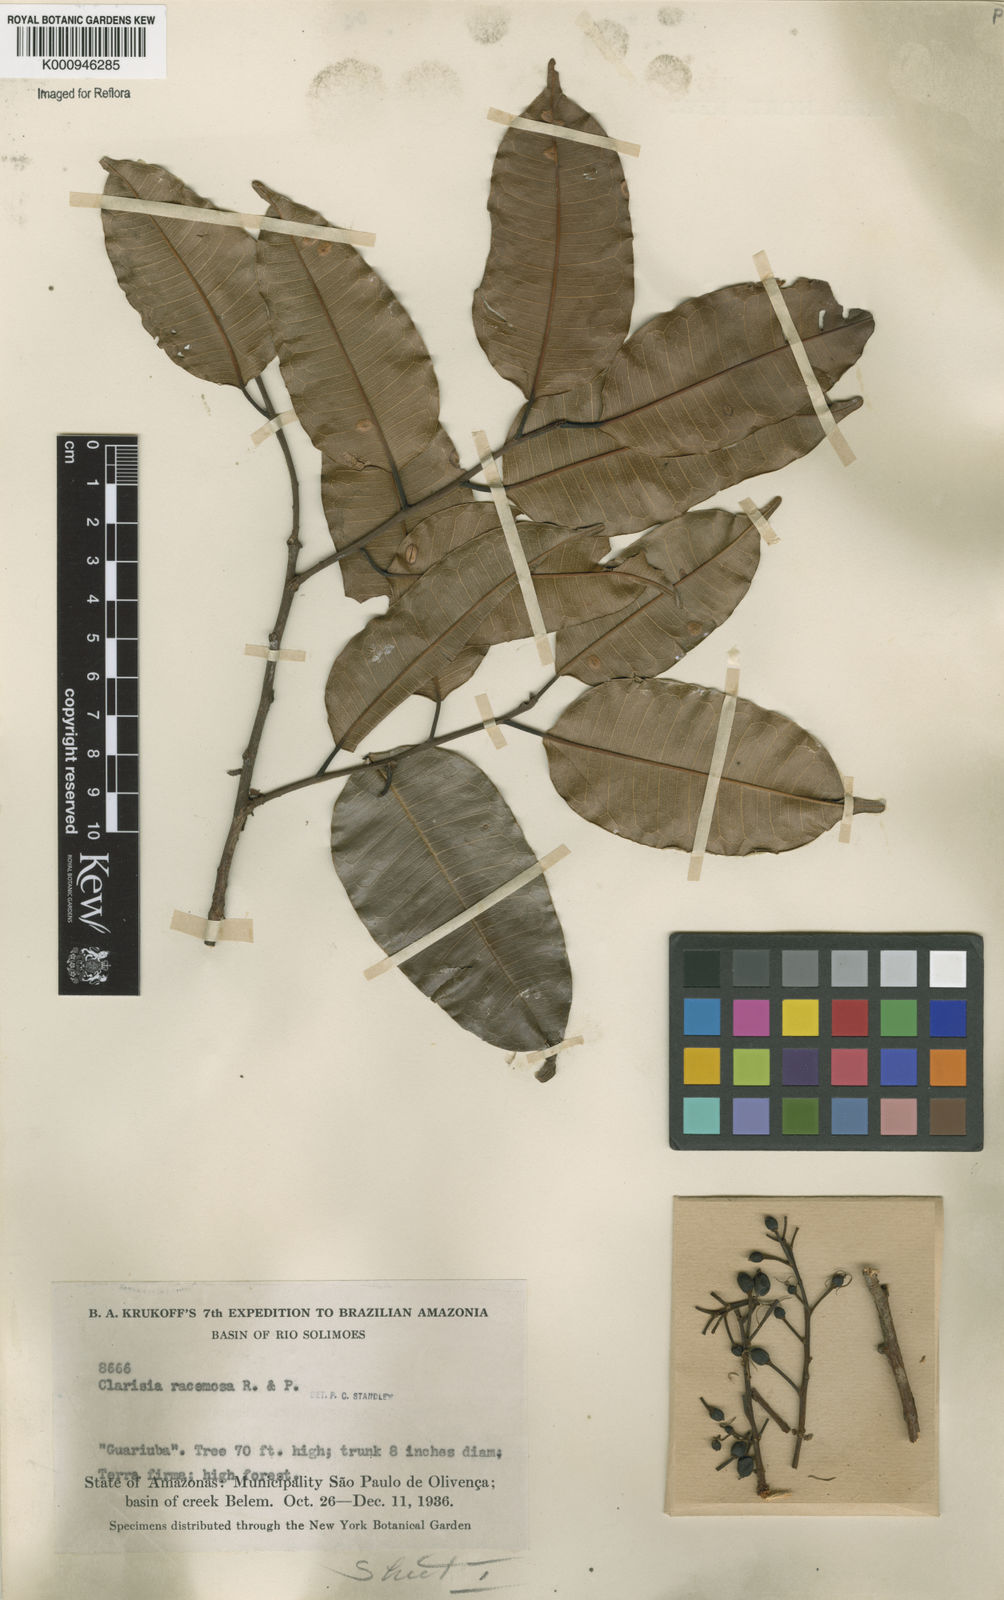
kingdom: Plantae
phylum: Tracheophyta
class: Magnoliopsida
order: Rosales
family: Moraceae
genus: Clarisia
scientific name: Clarisia racemosa
